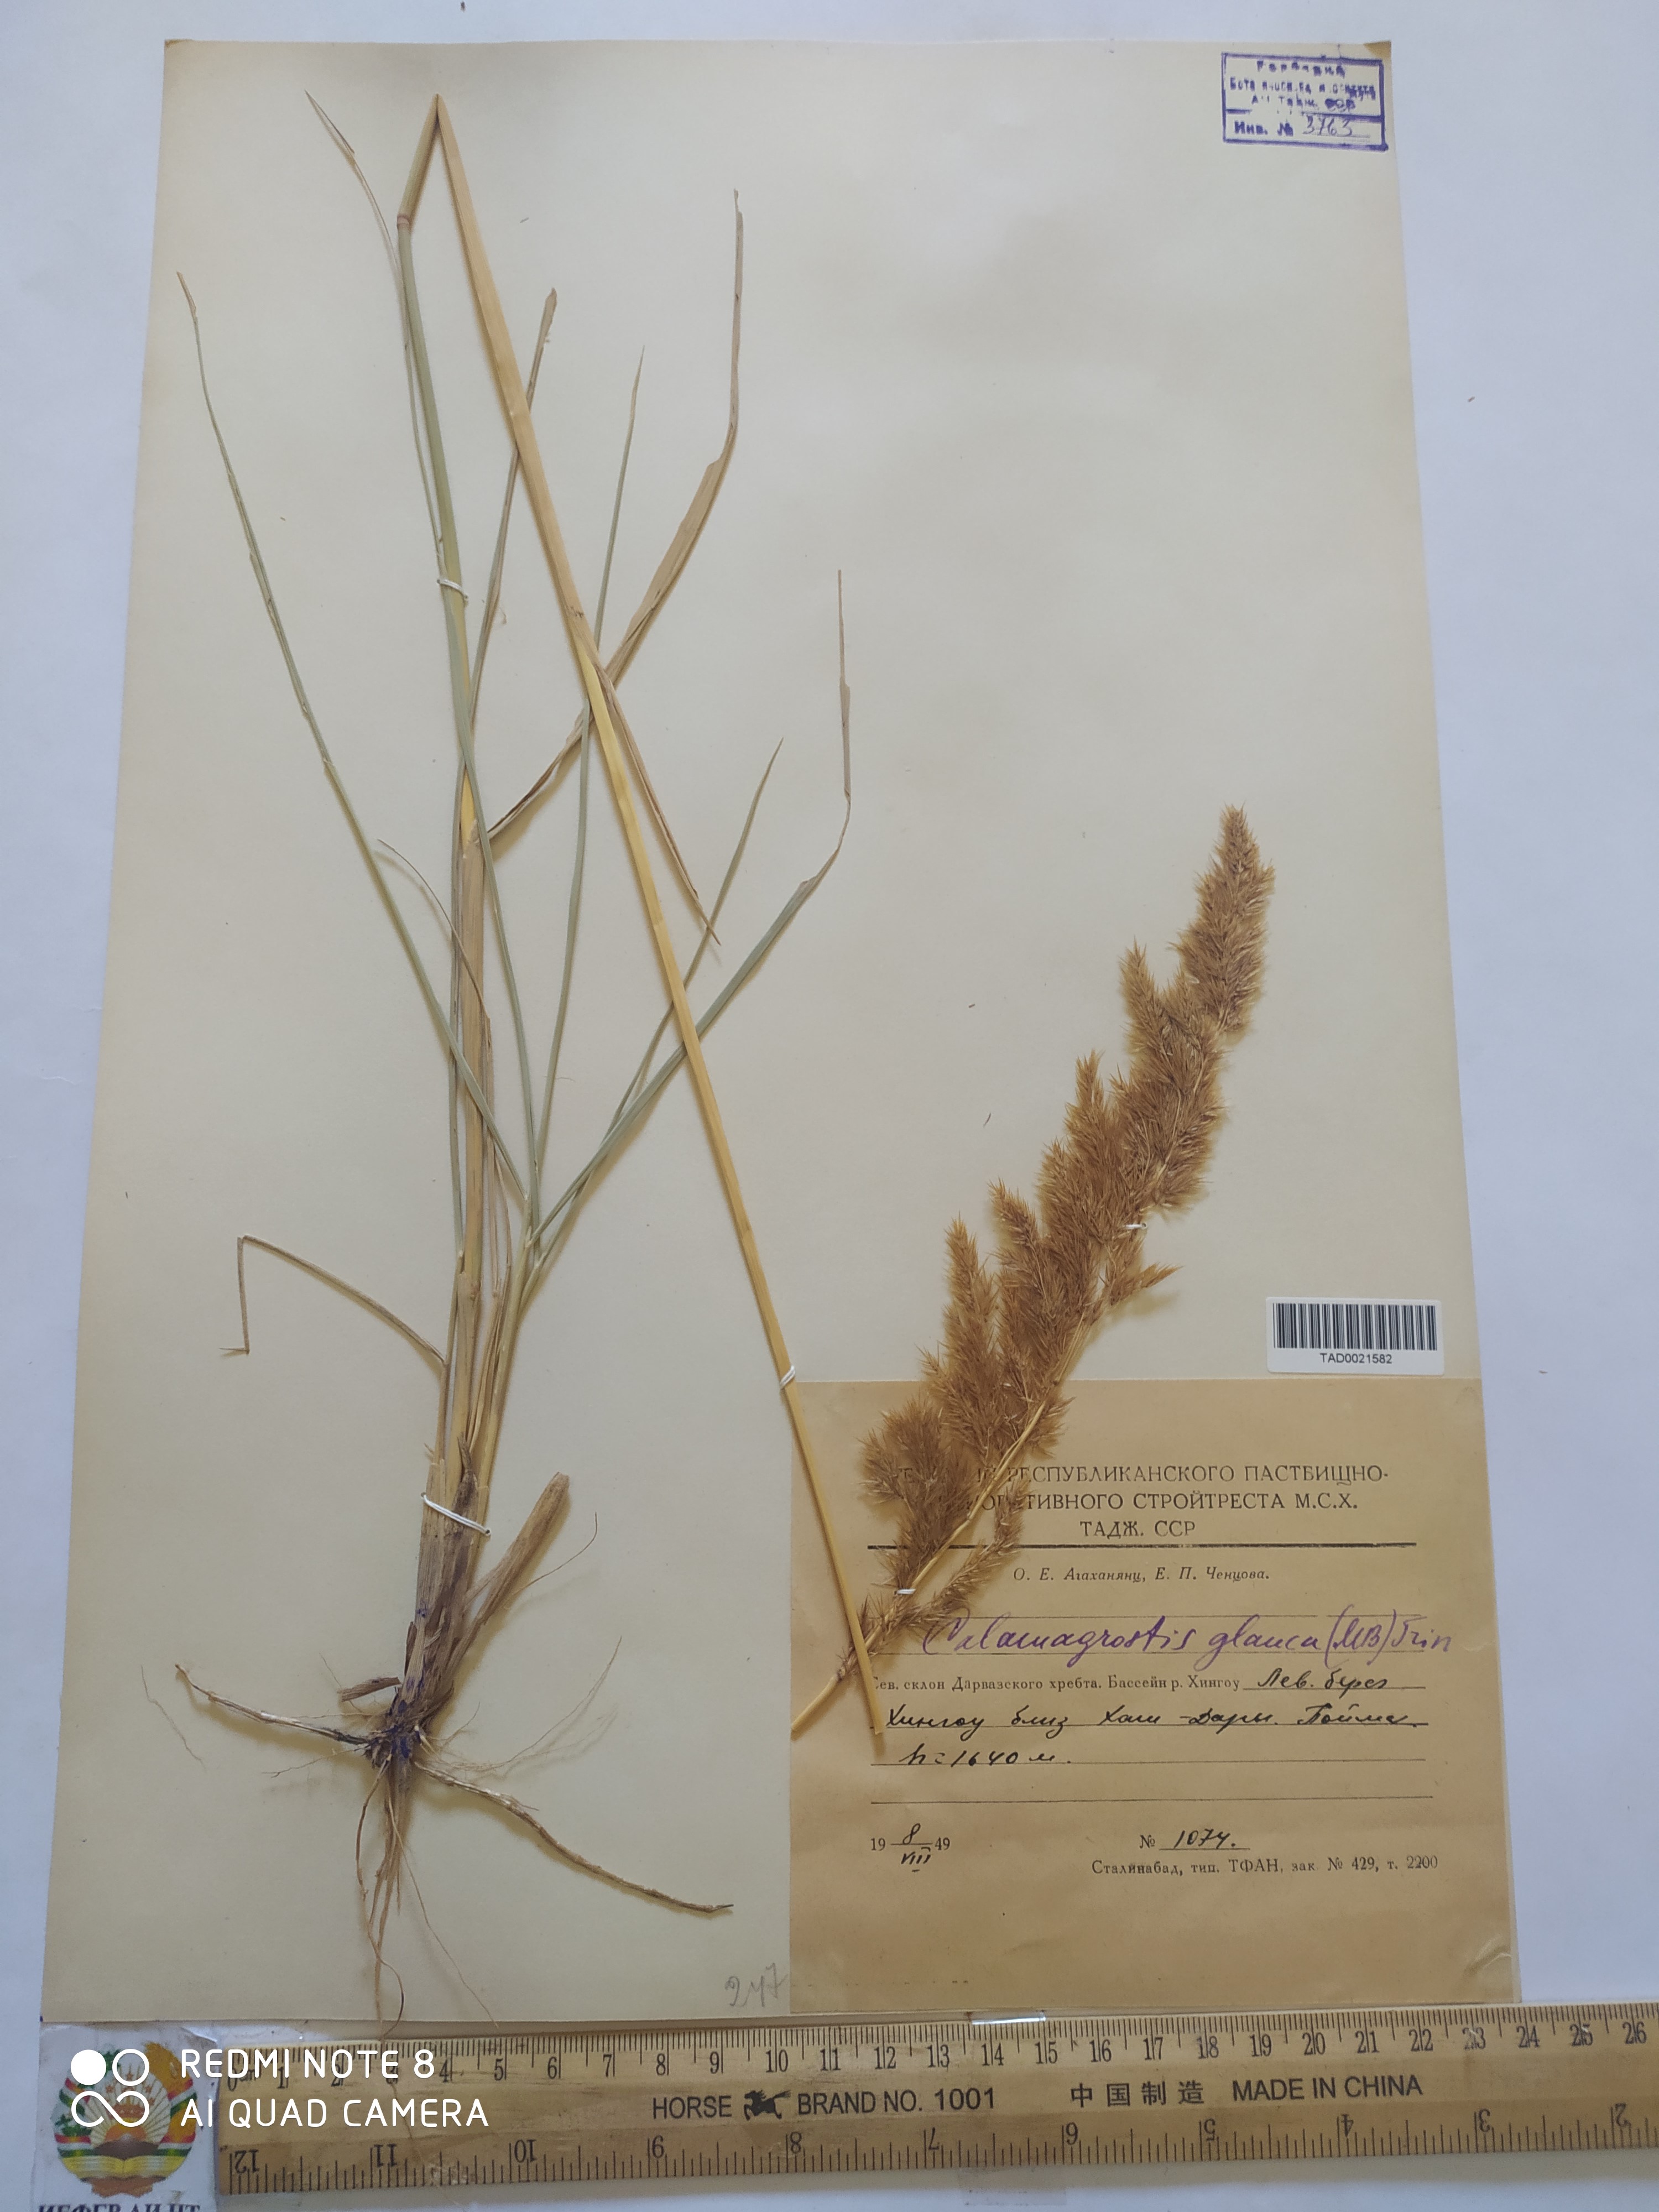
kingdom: Plantae
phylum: Tracheophyta
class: Liliopsida
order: Poales
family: Poaceae
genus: Calamagrostis
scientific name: Calamagrostis pseudophragmites
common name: Coastal small-reed
